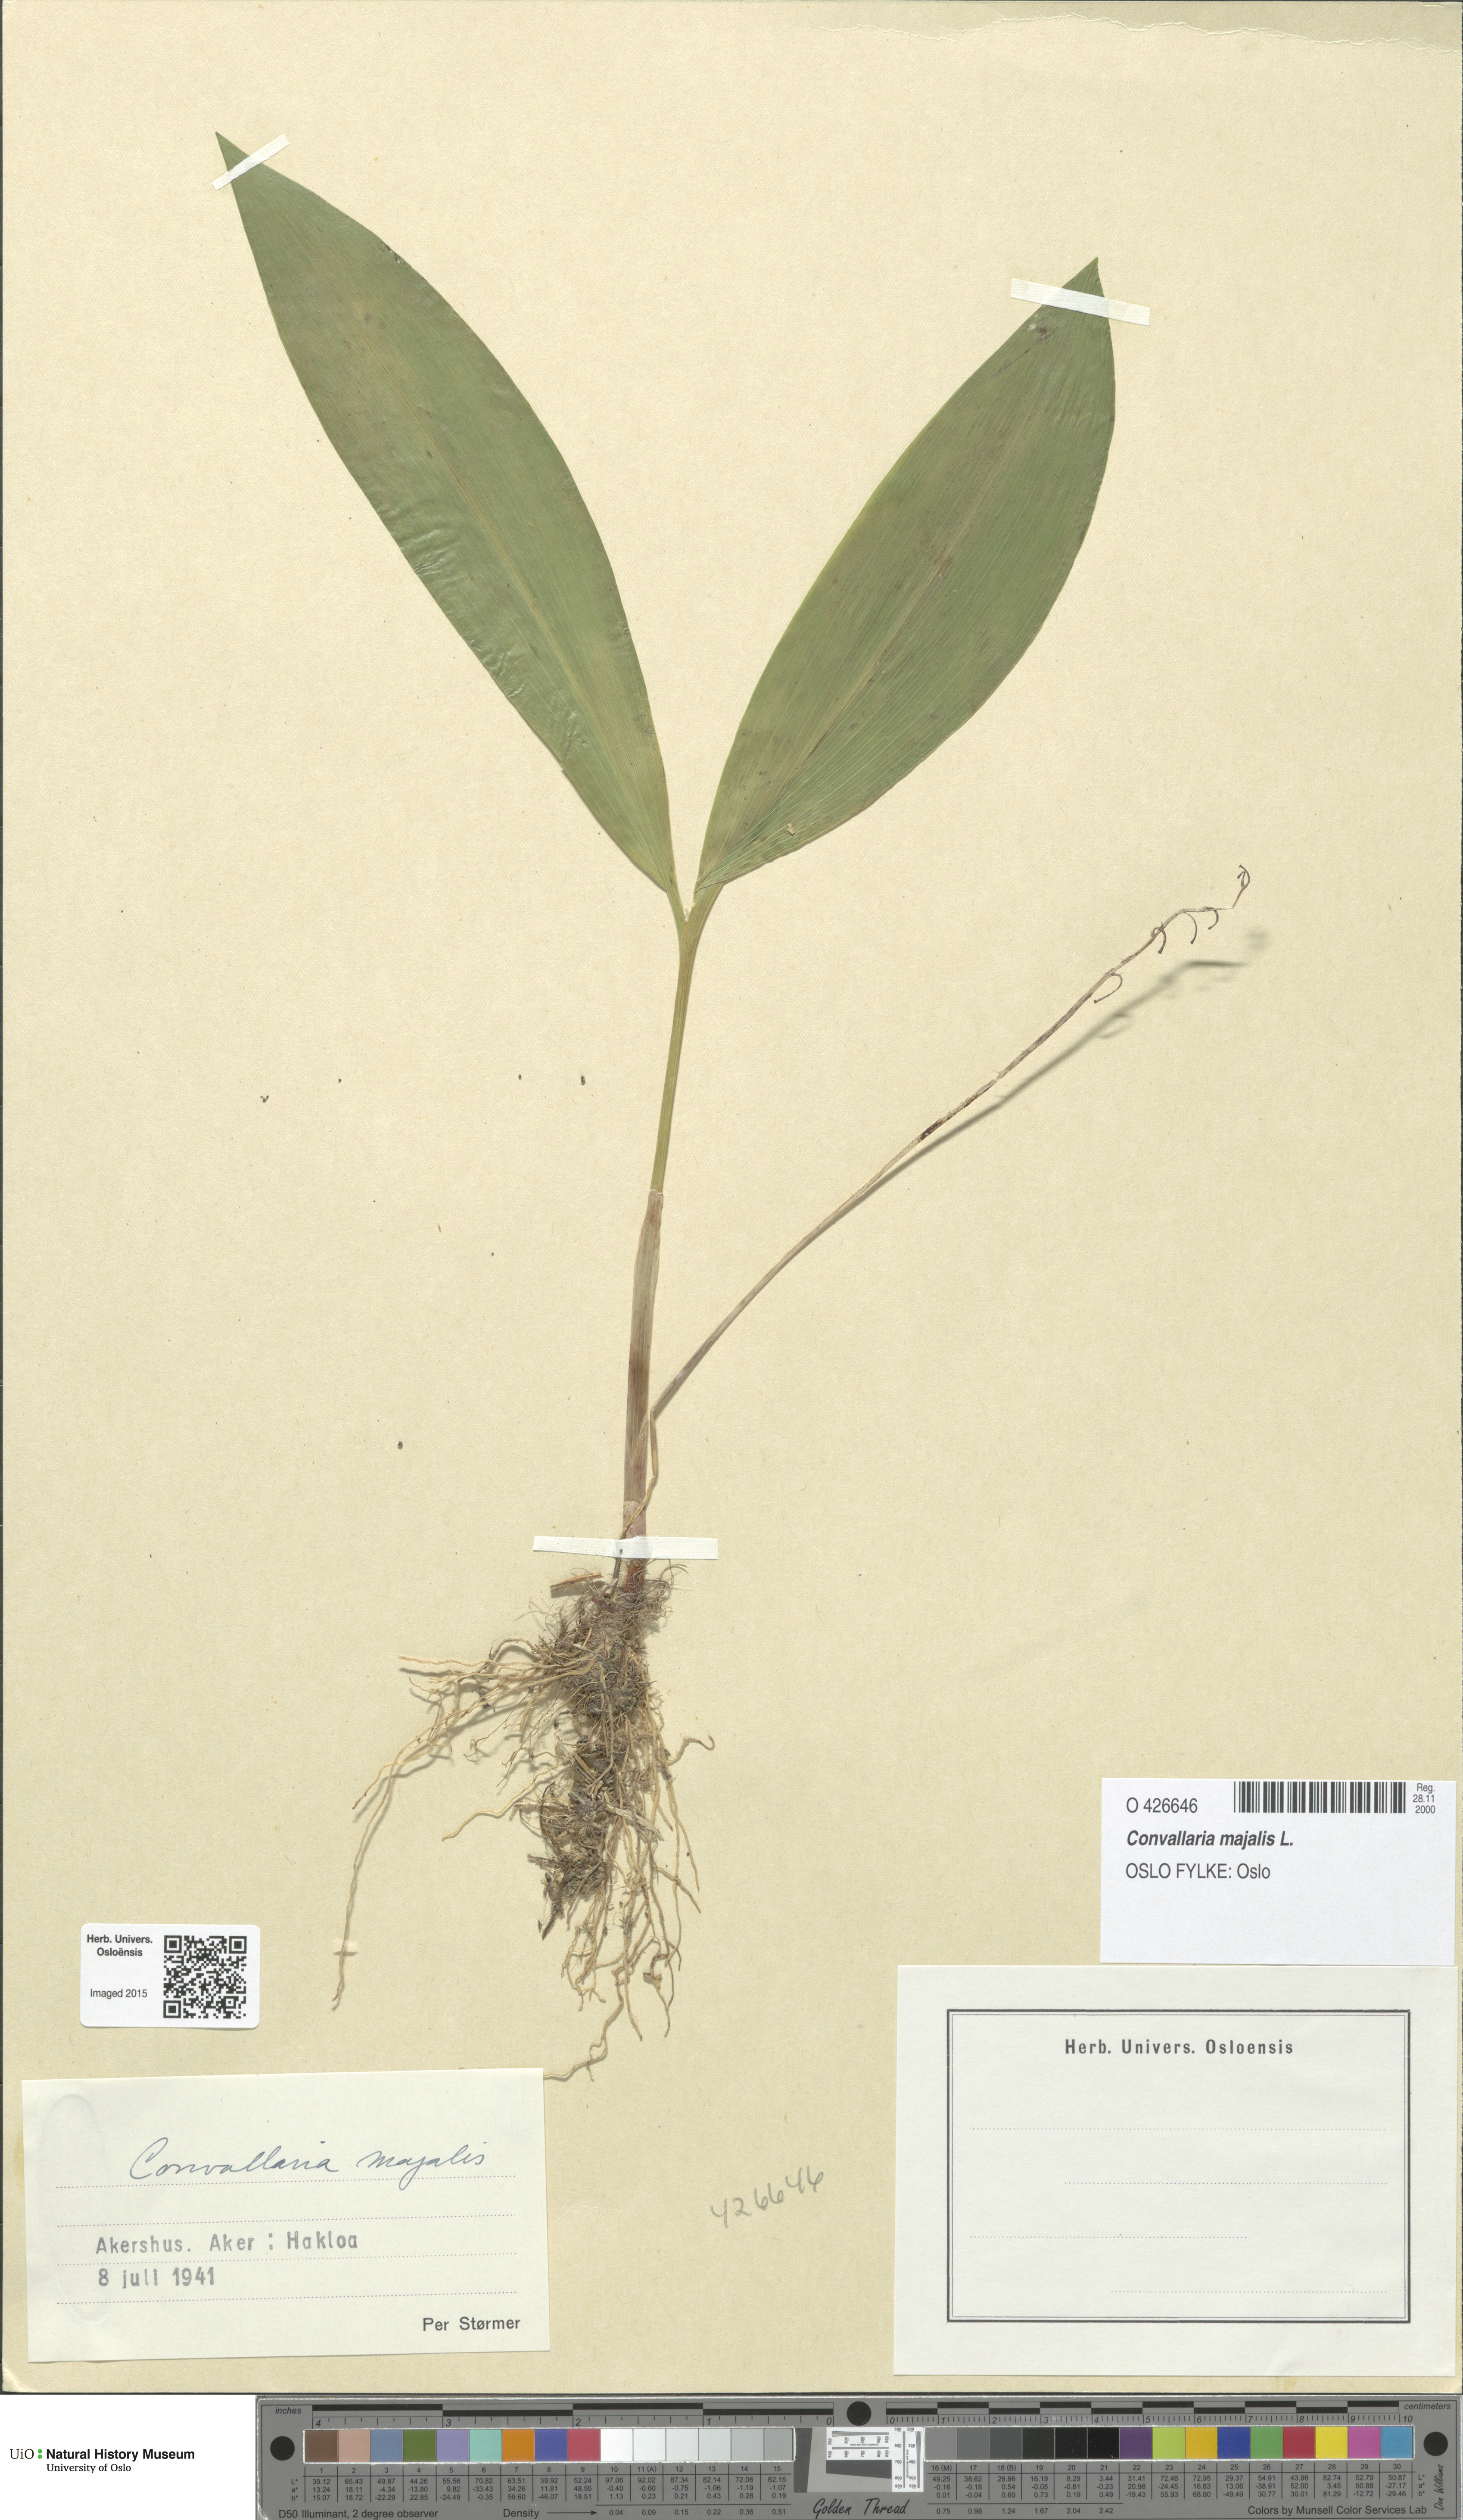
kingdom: Plantae
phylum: Tracheophyta
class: Liliopsida
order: Asparagales
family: Asparagaceae
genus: Convallaria
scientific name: Convallaria majalis
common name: Lily-of-the-valley
